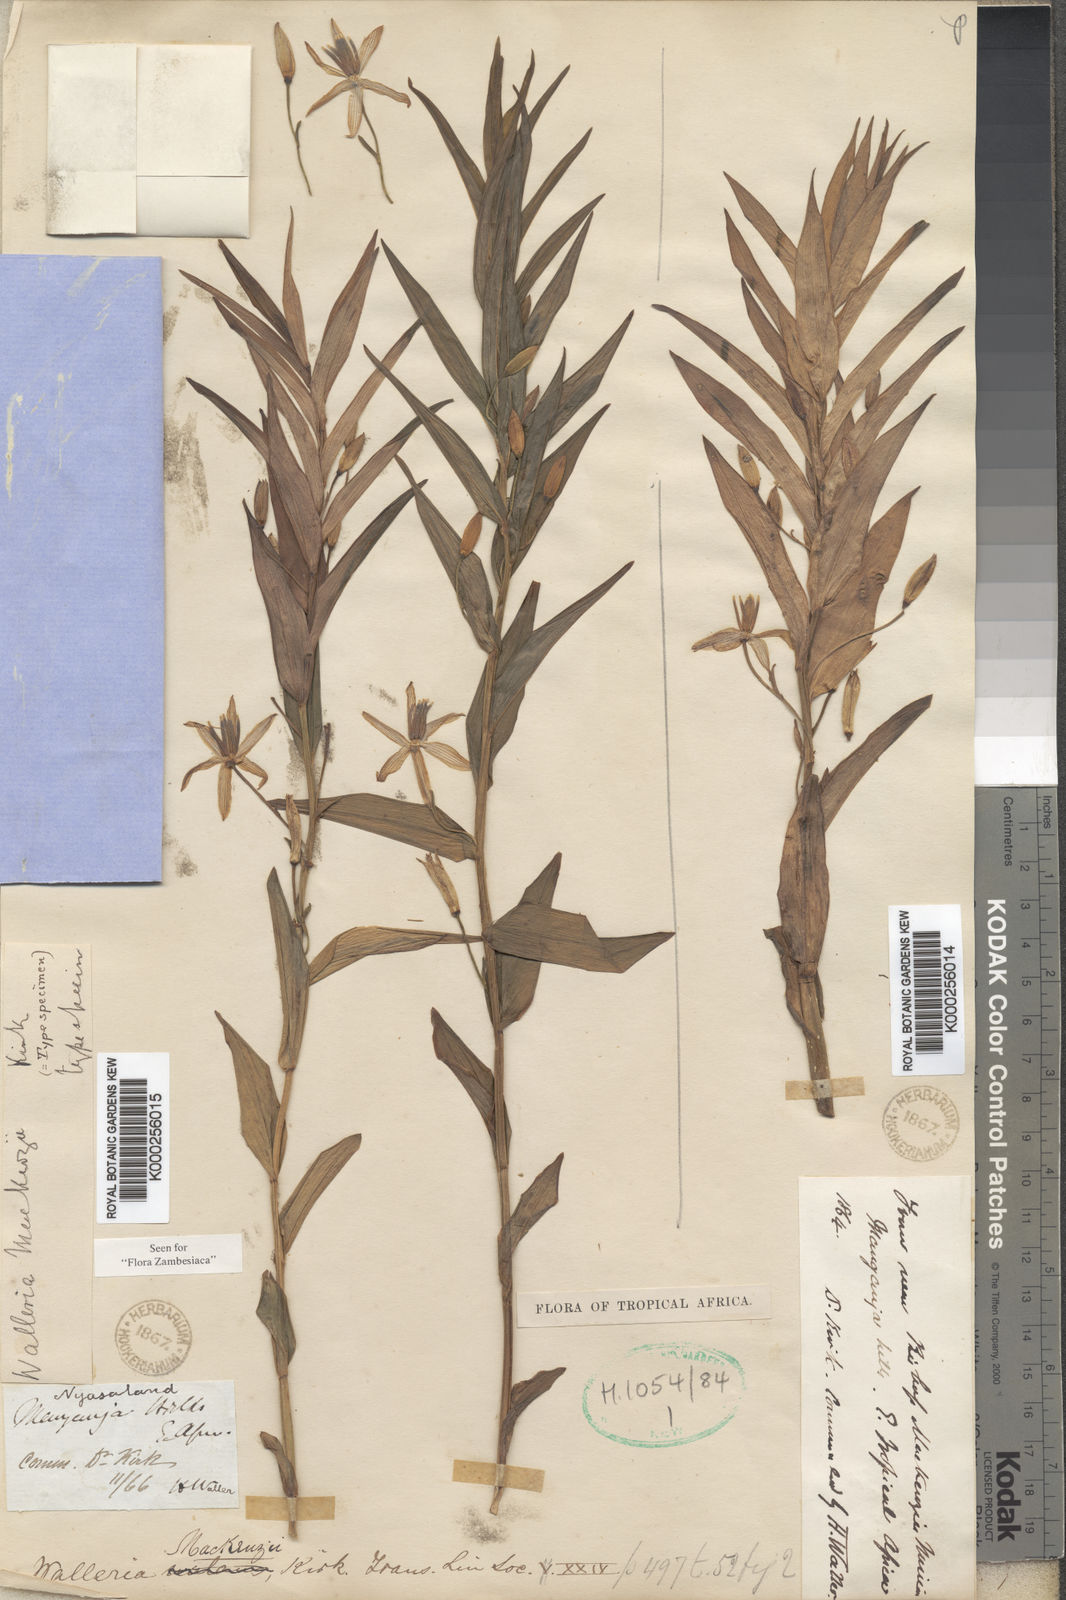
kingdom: Plantae
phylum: Tracheophyta
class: Liliopsida
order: Asparagales
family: Tecophilaeaceae
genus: Walleria
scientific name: Walleria mackenziei
